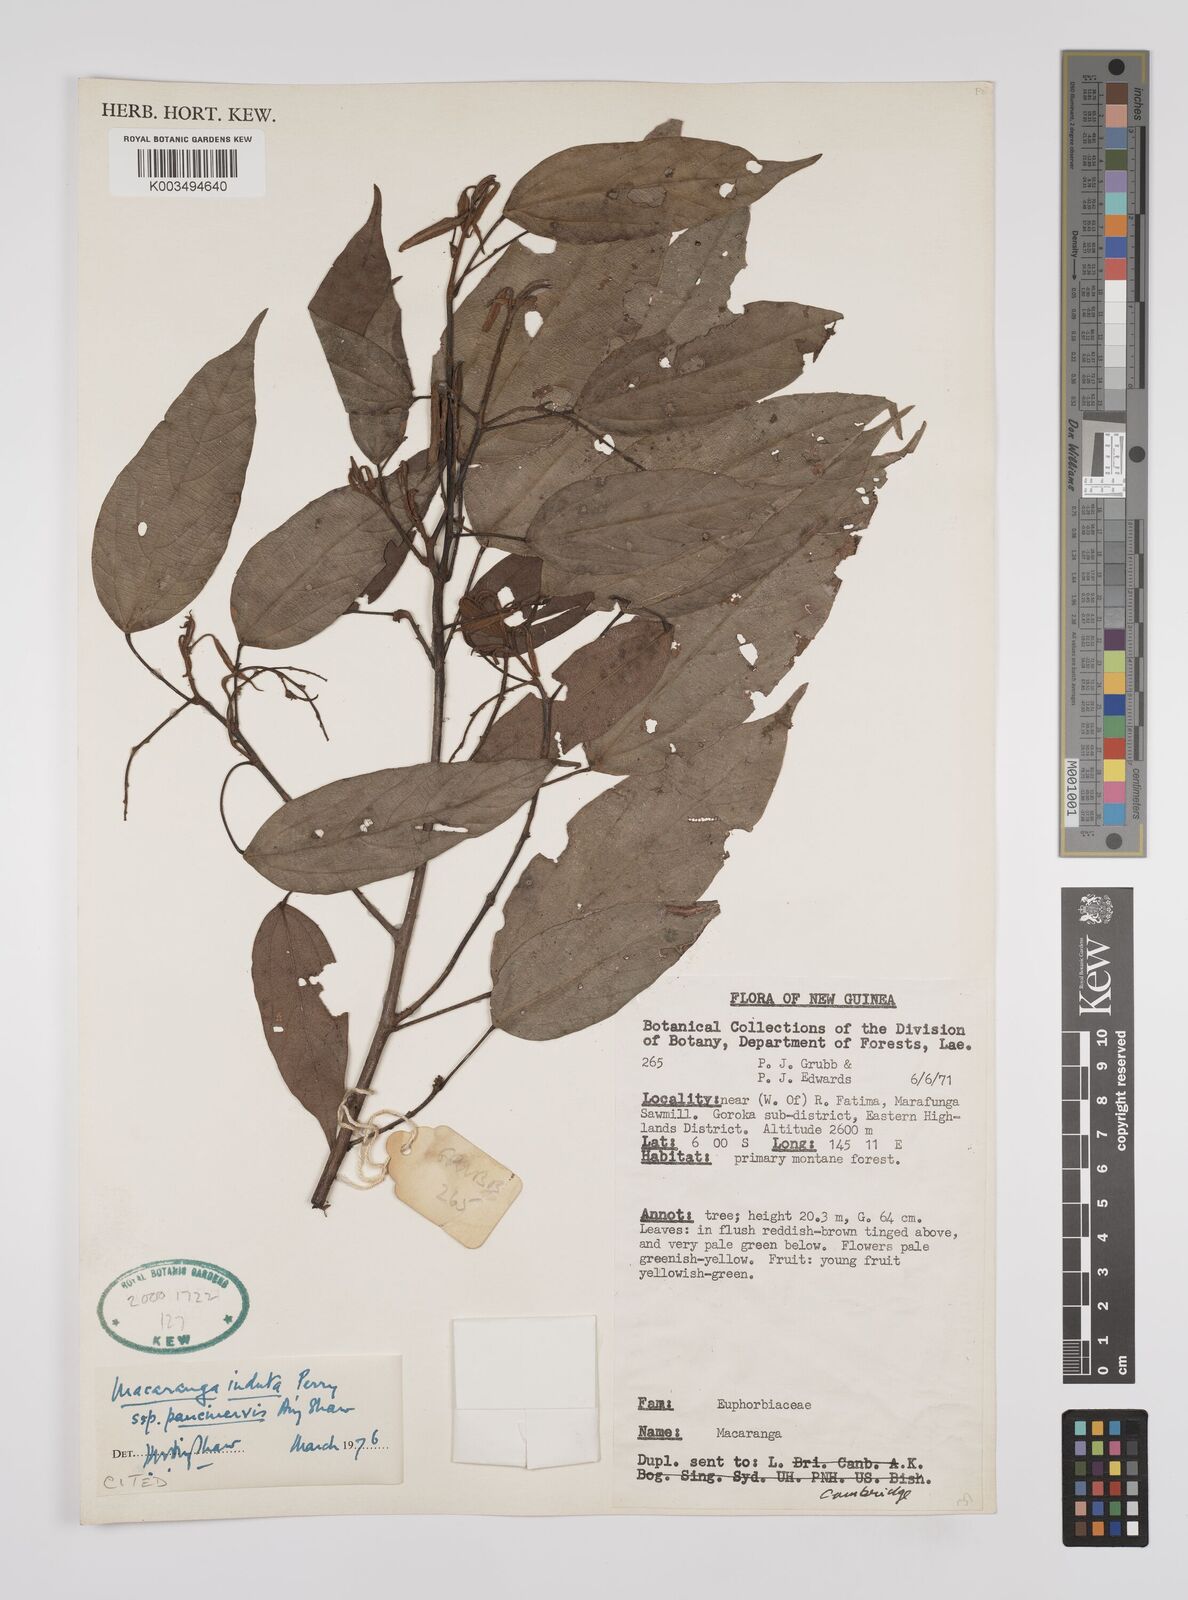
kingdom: Plantae
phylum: Tracheophyta
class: Magnoliopsida
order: Malpighiales
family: Euphorbiaceae
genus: Macaranga
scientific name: Macaranga induta
